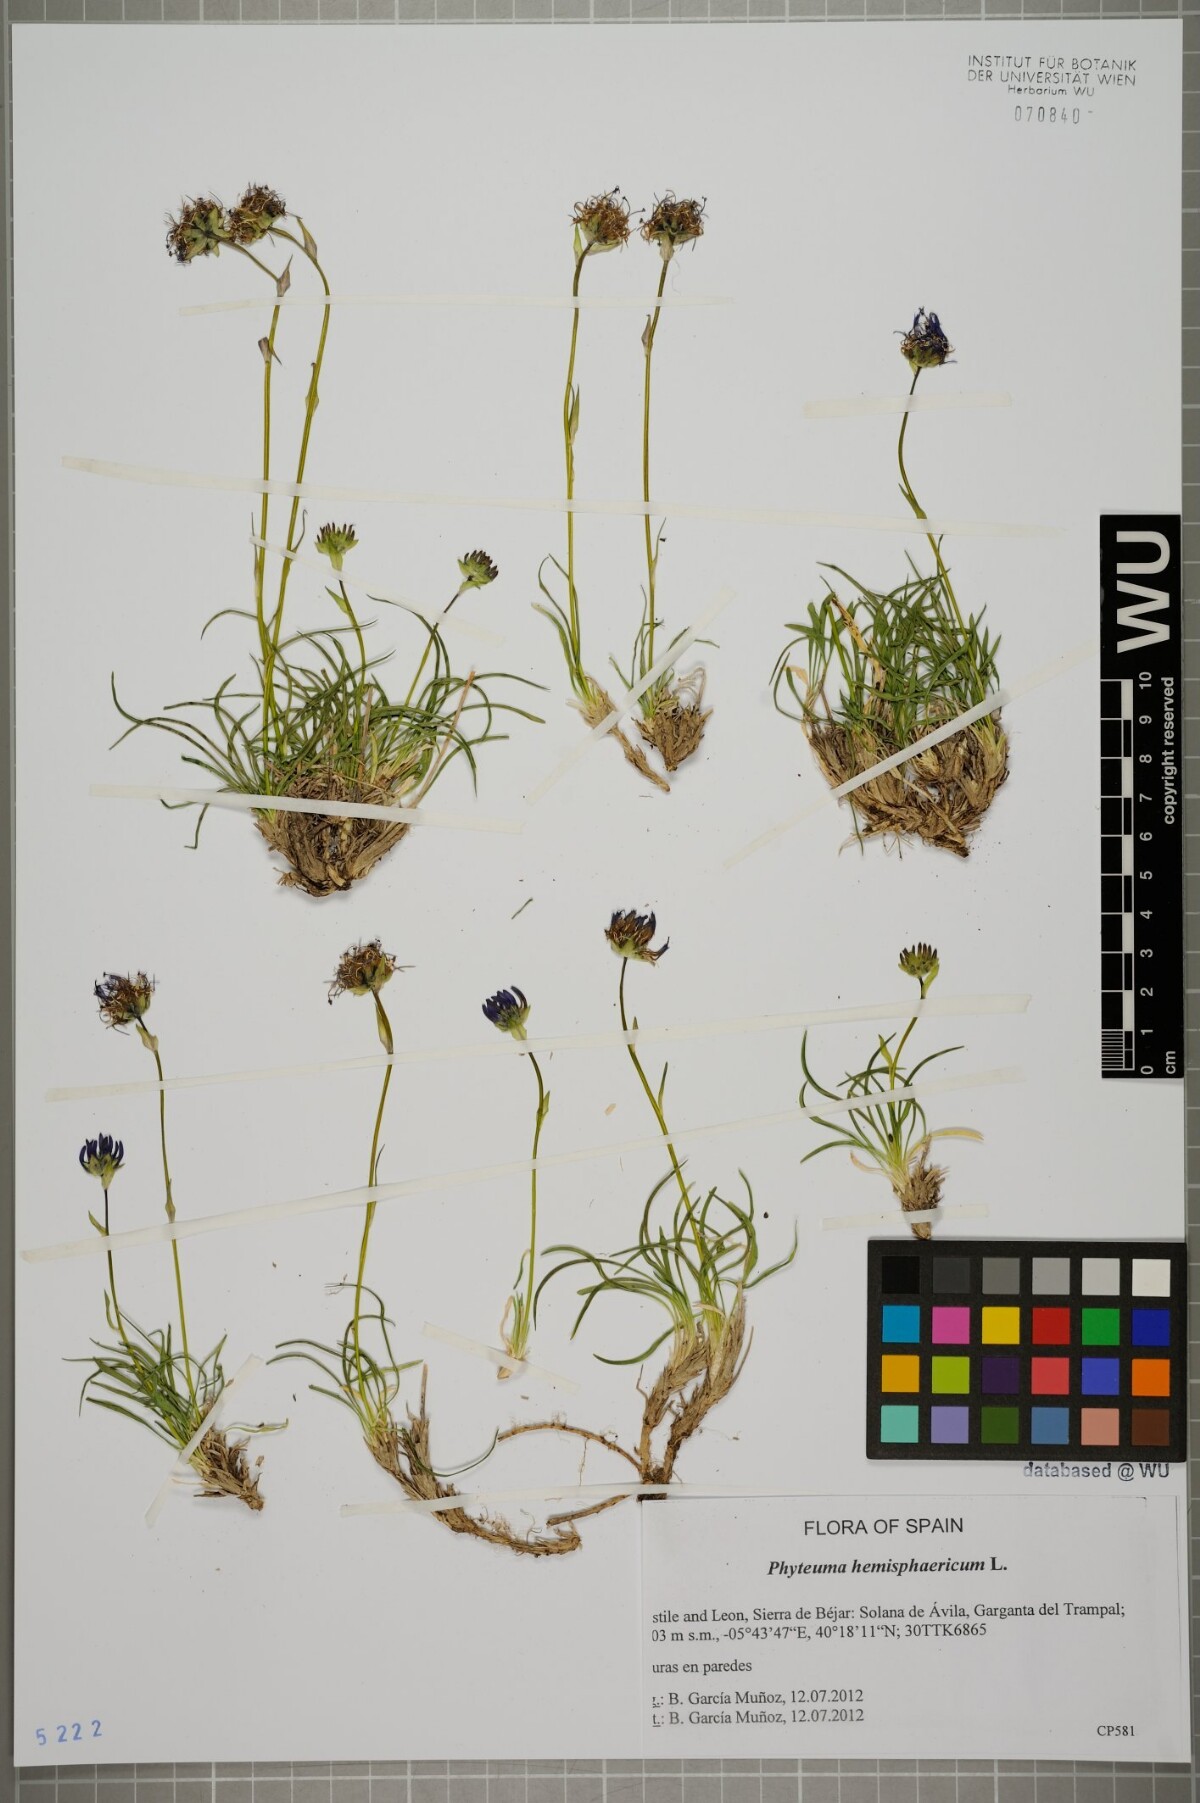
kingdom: Plantae
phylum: Tracheophyta
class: Magnoliopsida
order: Asterales
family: Campanulaceae
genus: Phyteuma
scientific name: Phyteuma hemisphaericum
